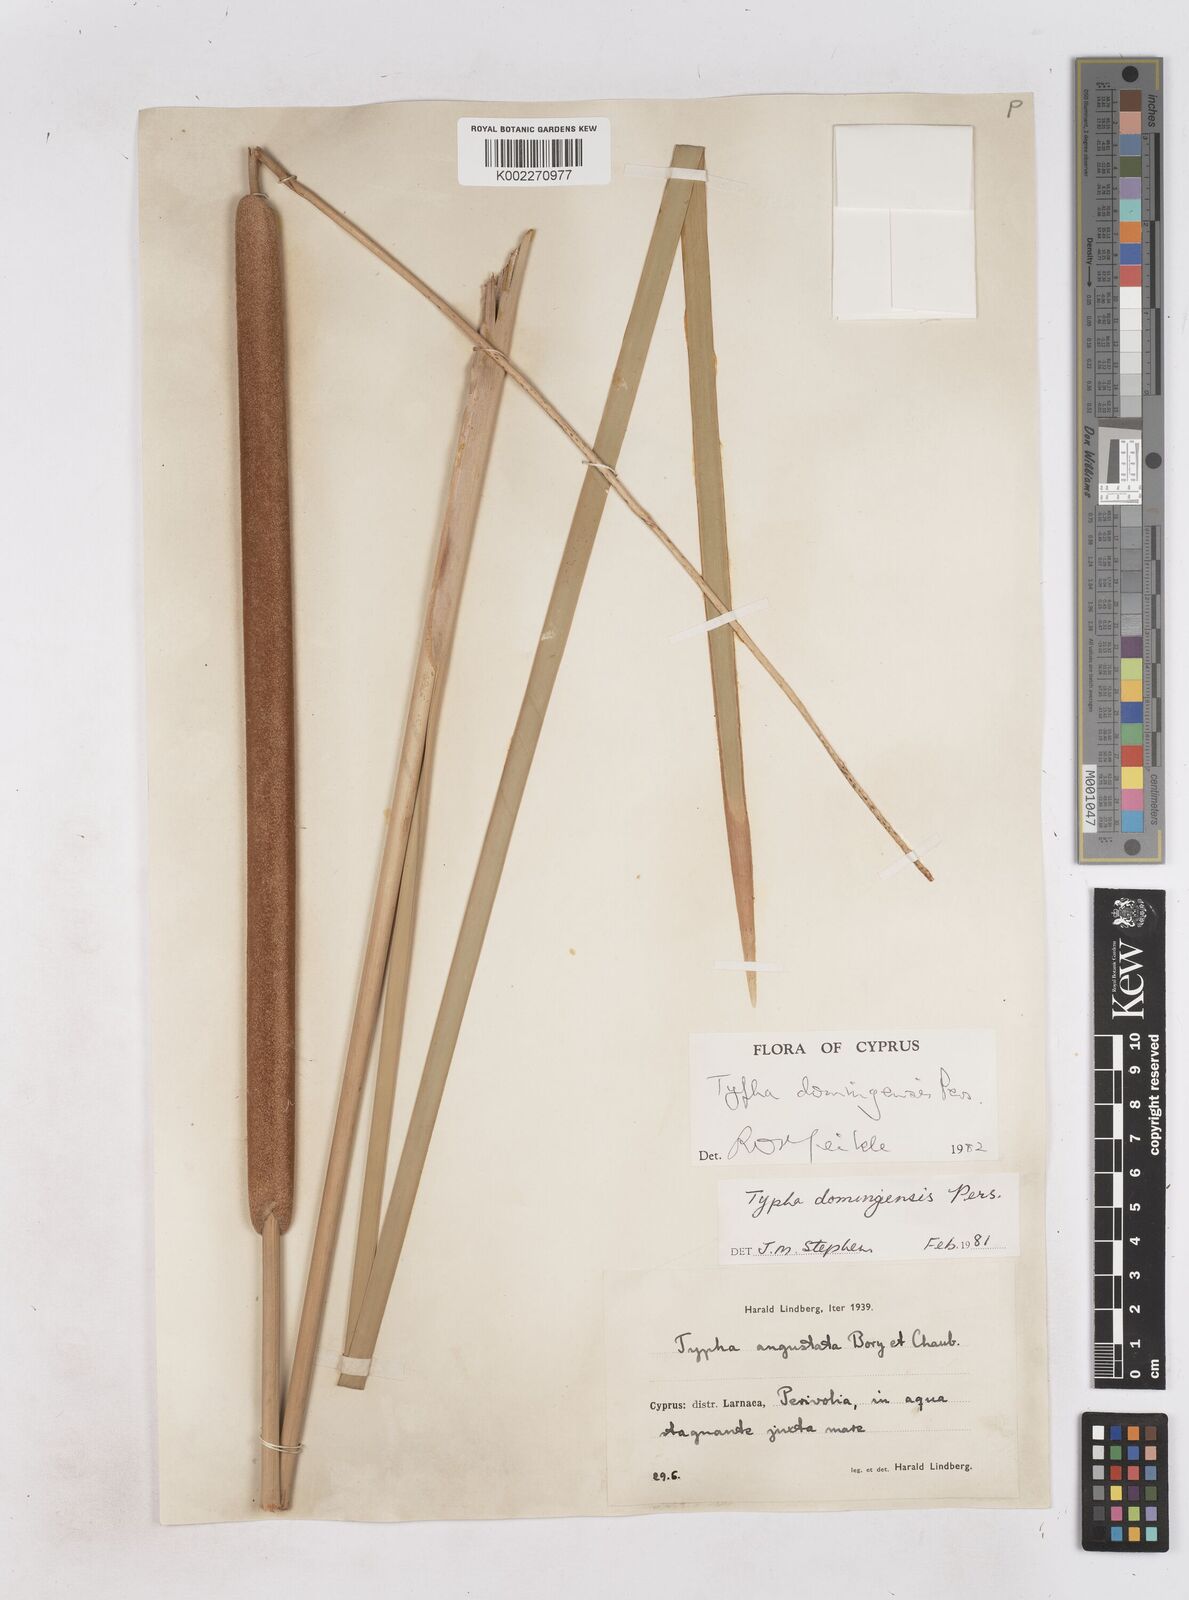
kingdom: Plantae
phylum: Tracheophyta
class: Liliopsida
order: Poales
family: Typhaceae
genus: Typha
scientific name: Typha domingensis
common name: Southern cattail
